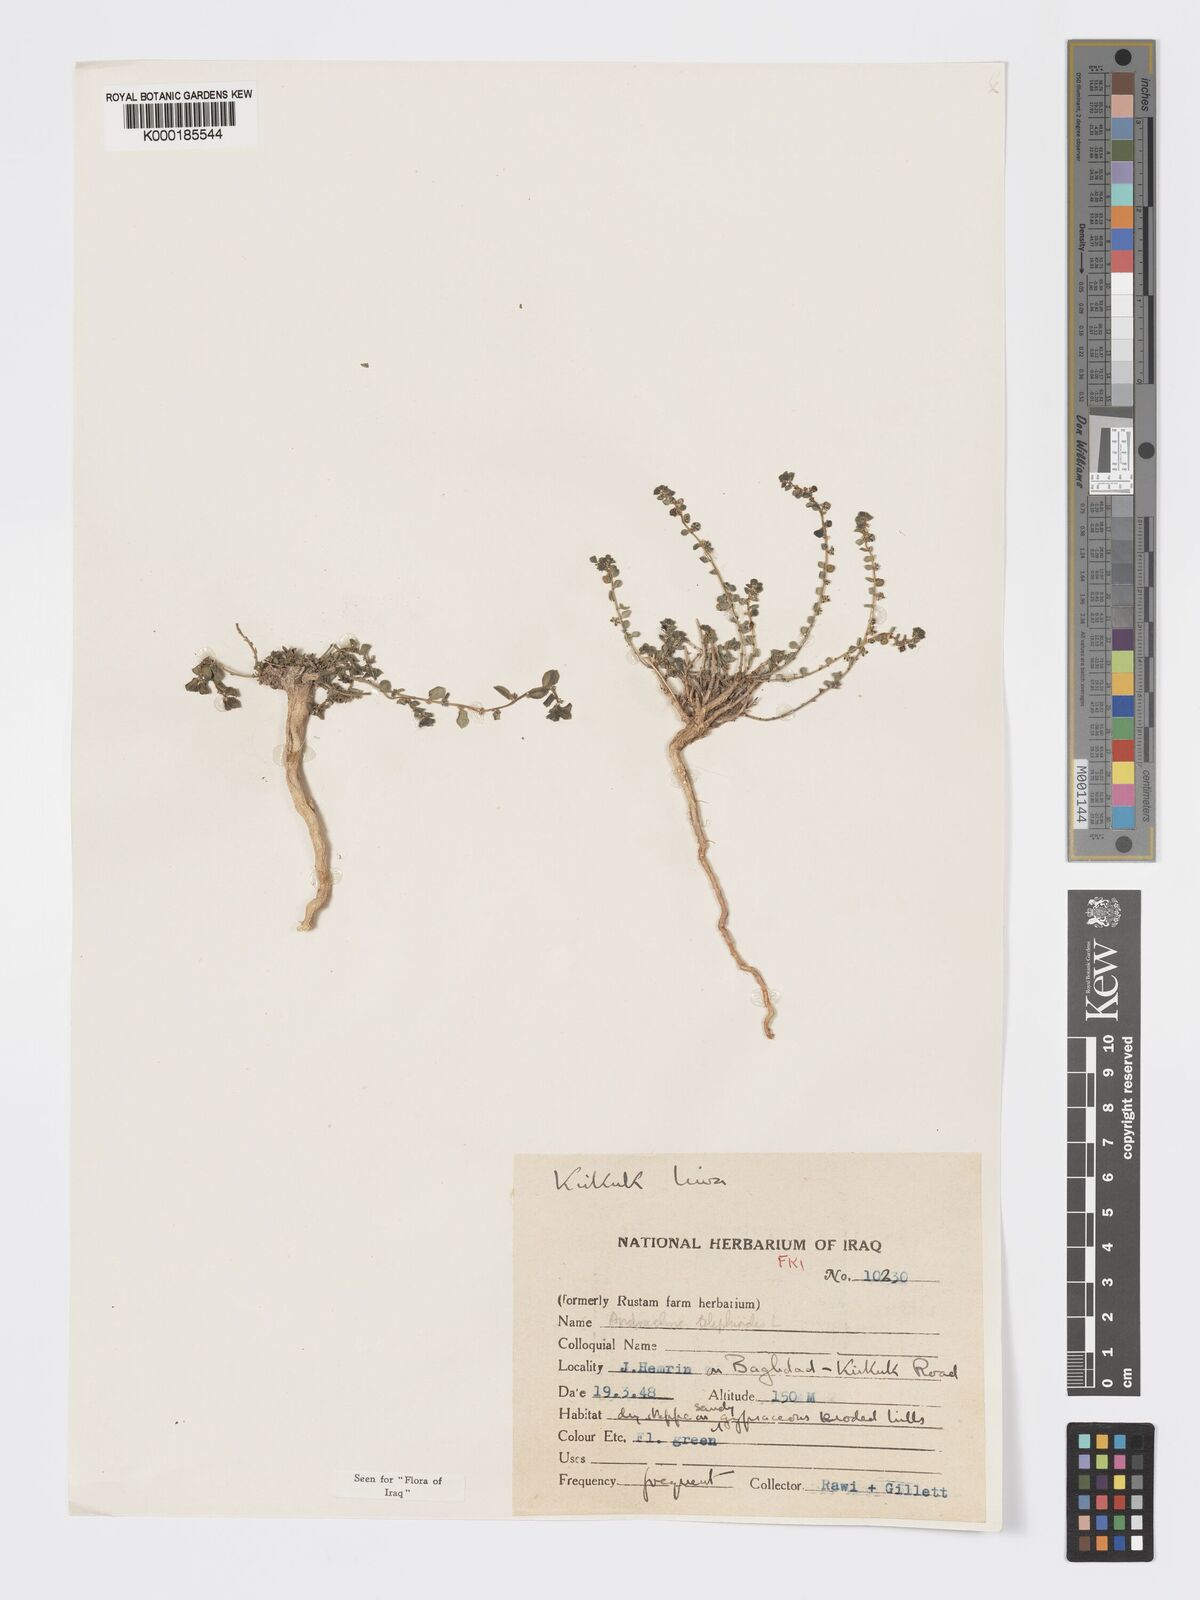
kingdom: Plantae
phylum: Tracheophyta
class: Magnoliopsida
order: Malpighiales
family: Phyllanthaceae
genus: Andrachne
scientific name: Andrachne telephioides
